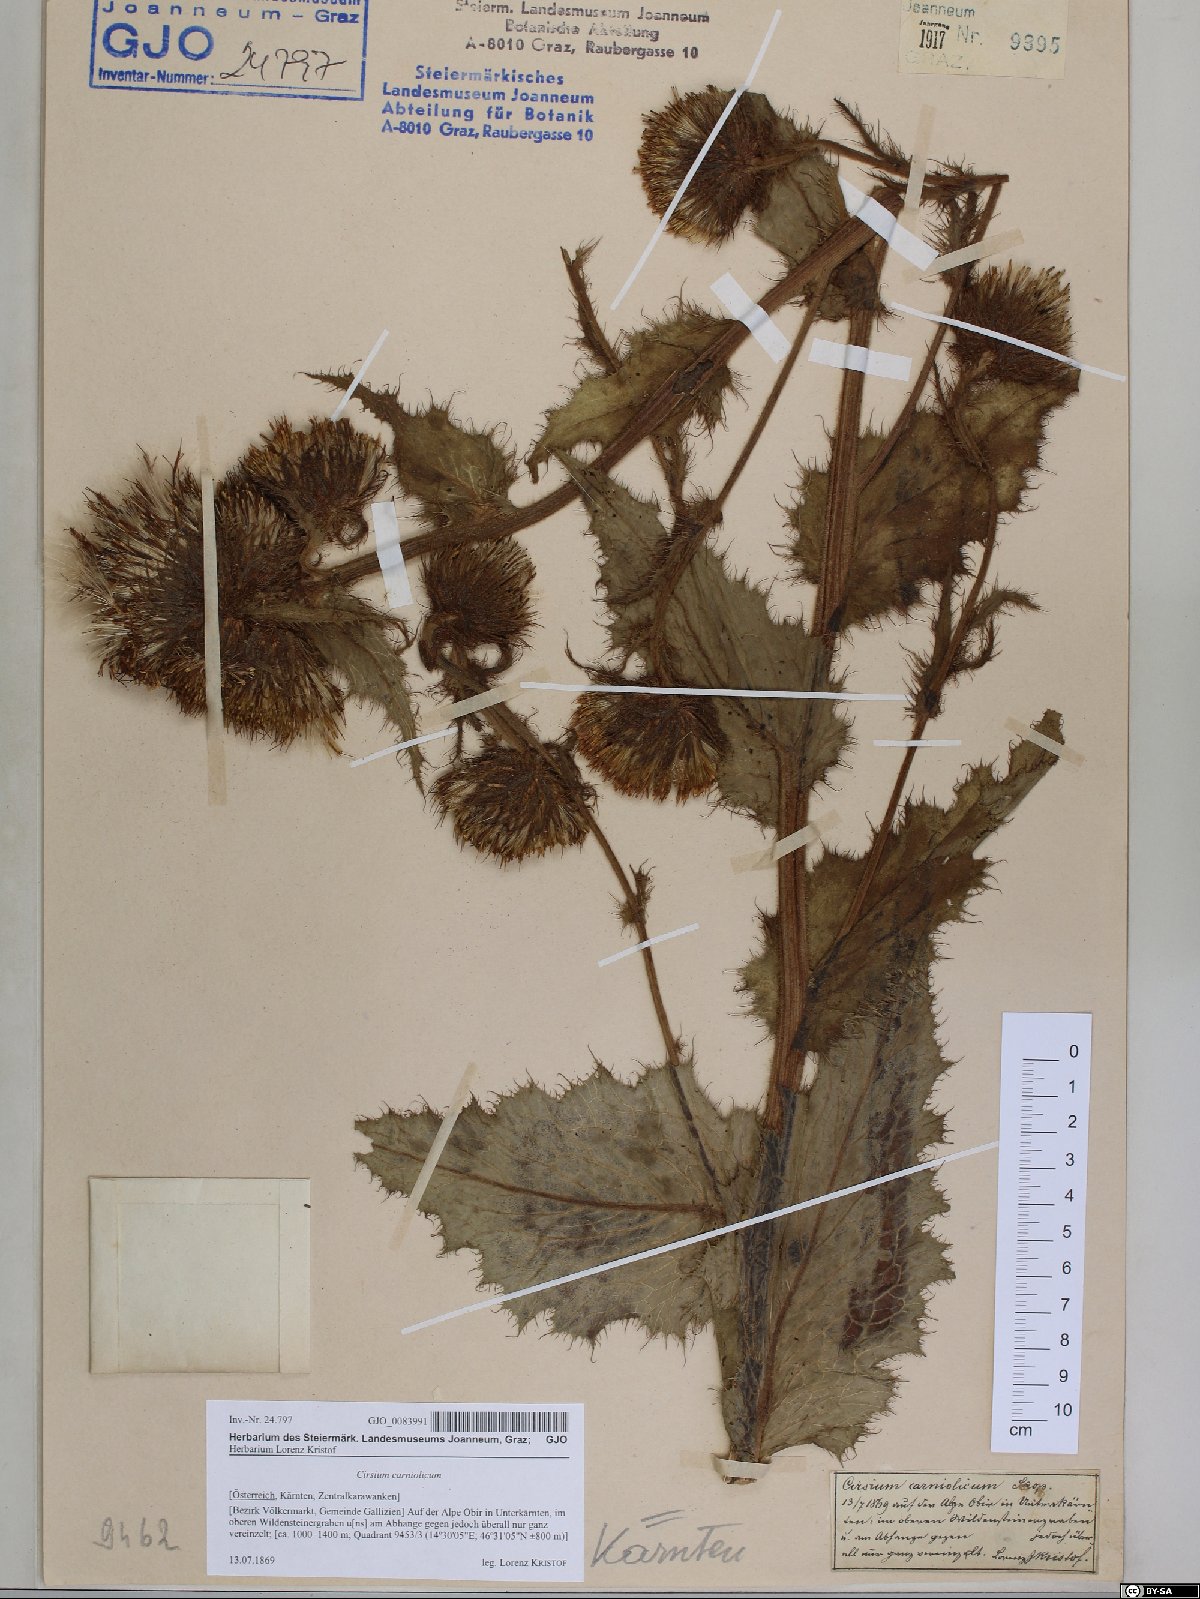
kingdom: Plantae
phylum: Tracheophyta
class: Magnoliopsida
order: Asterales
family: Asteraceae
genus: Cirsium
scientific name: Cirsium carniolicum
